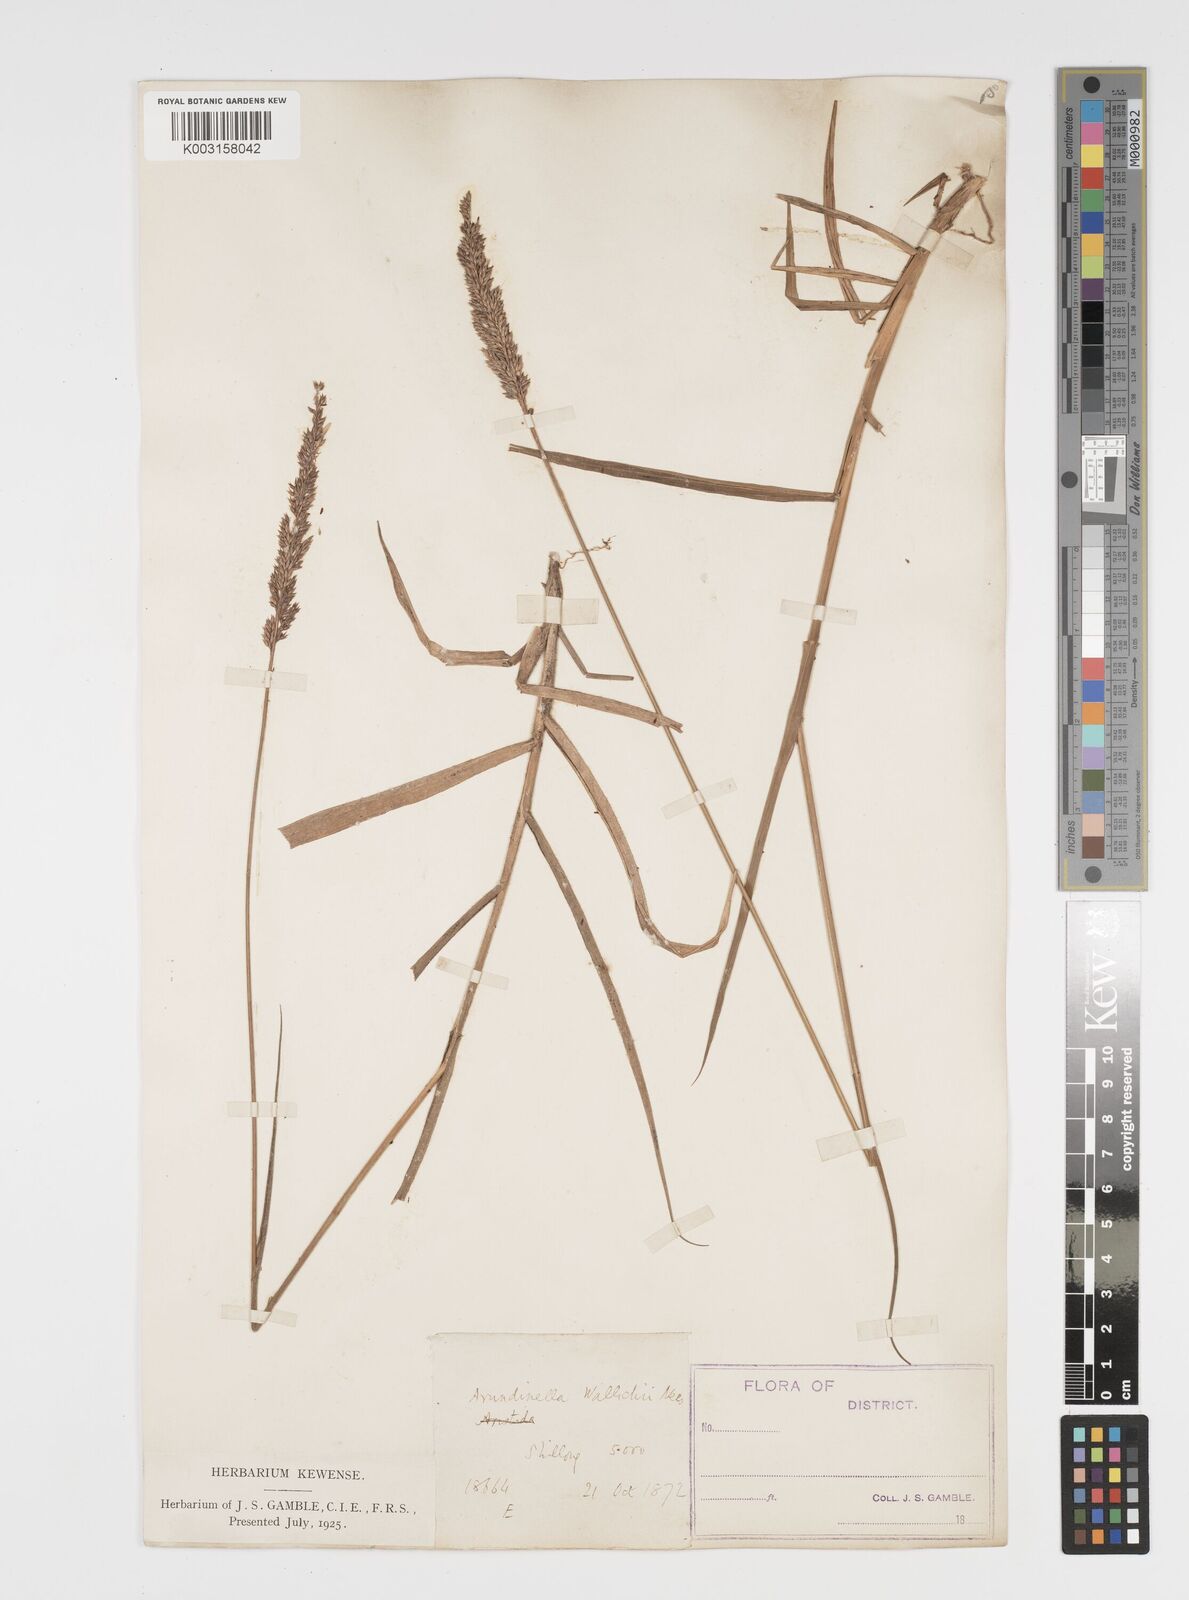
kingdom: Plantae
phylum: Tracheophyta
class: Liliopsida
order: Poales
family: Poaceae
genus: Arundinella
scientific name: Arundinella bengalensis
